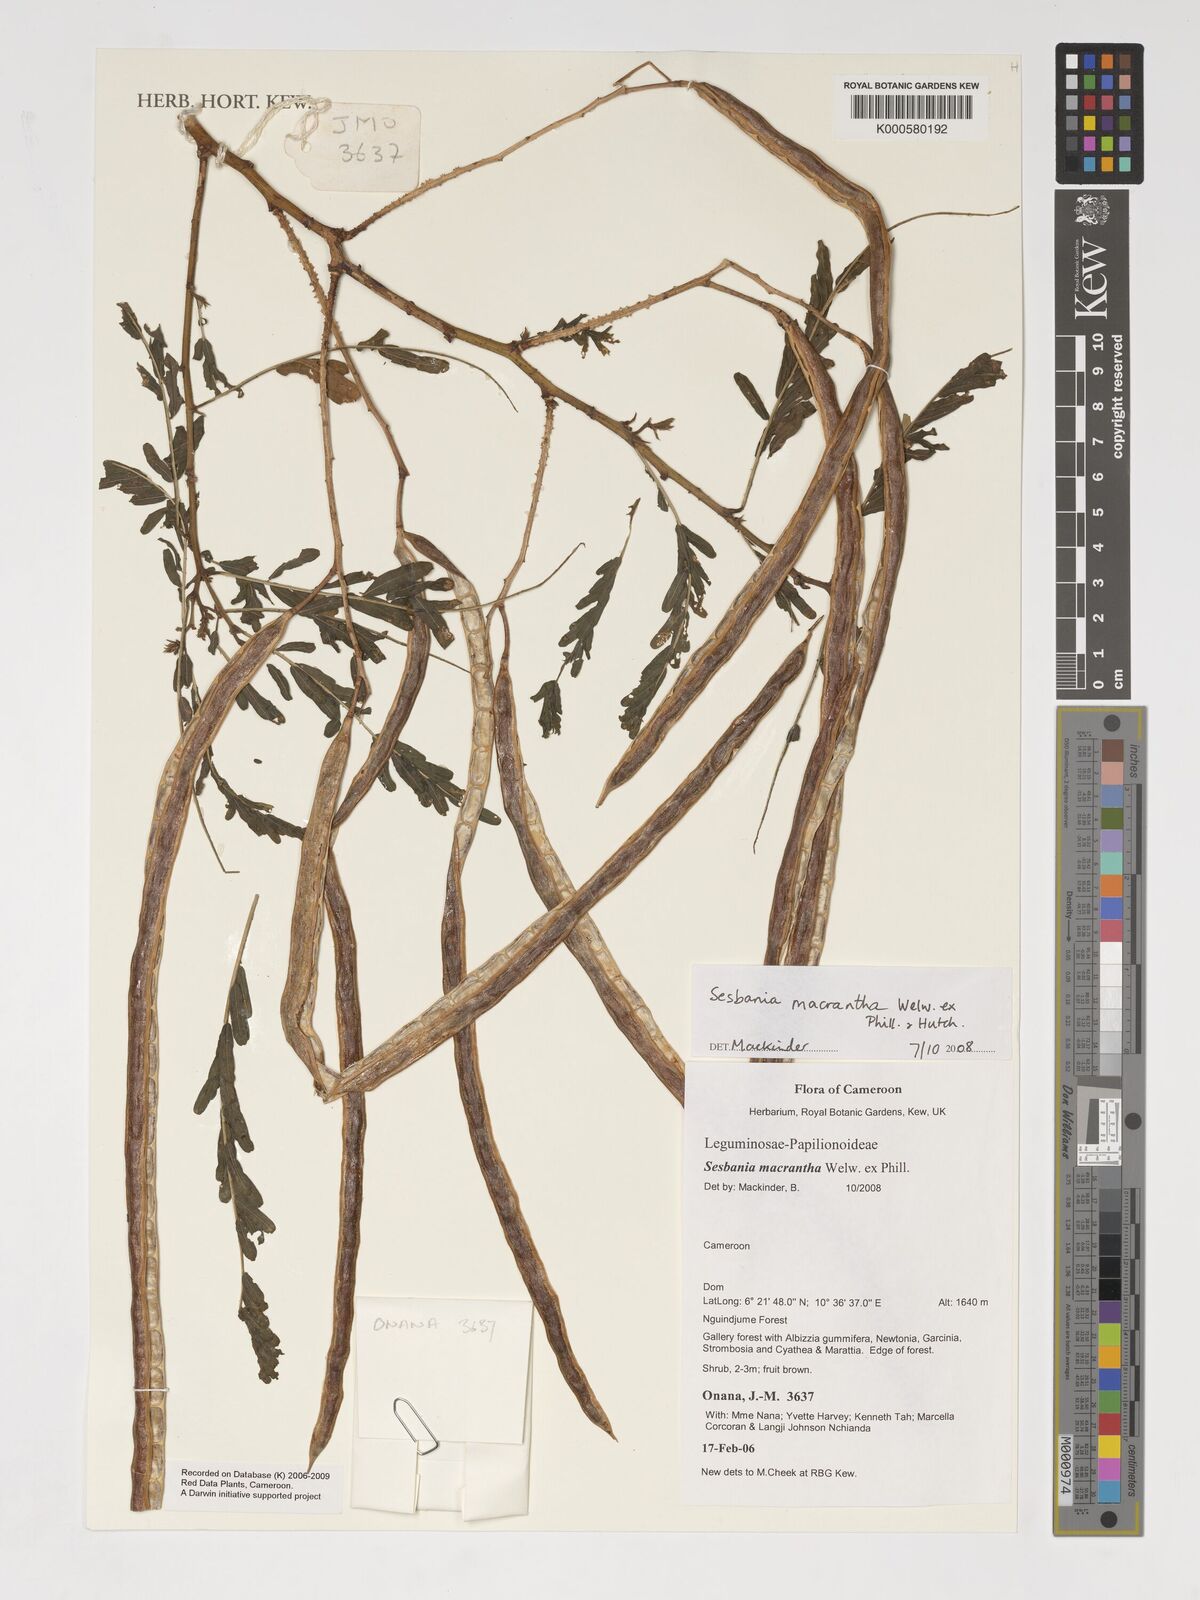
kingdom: Plantae
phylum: Tracheophyta
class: Magnoliopsida
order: Fabales
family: Fabaceae
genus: Sesbania
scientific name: Sesbania macrantha
